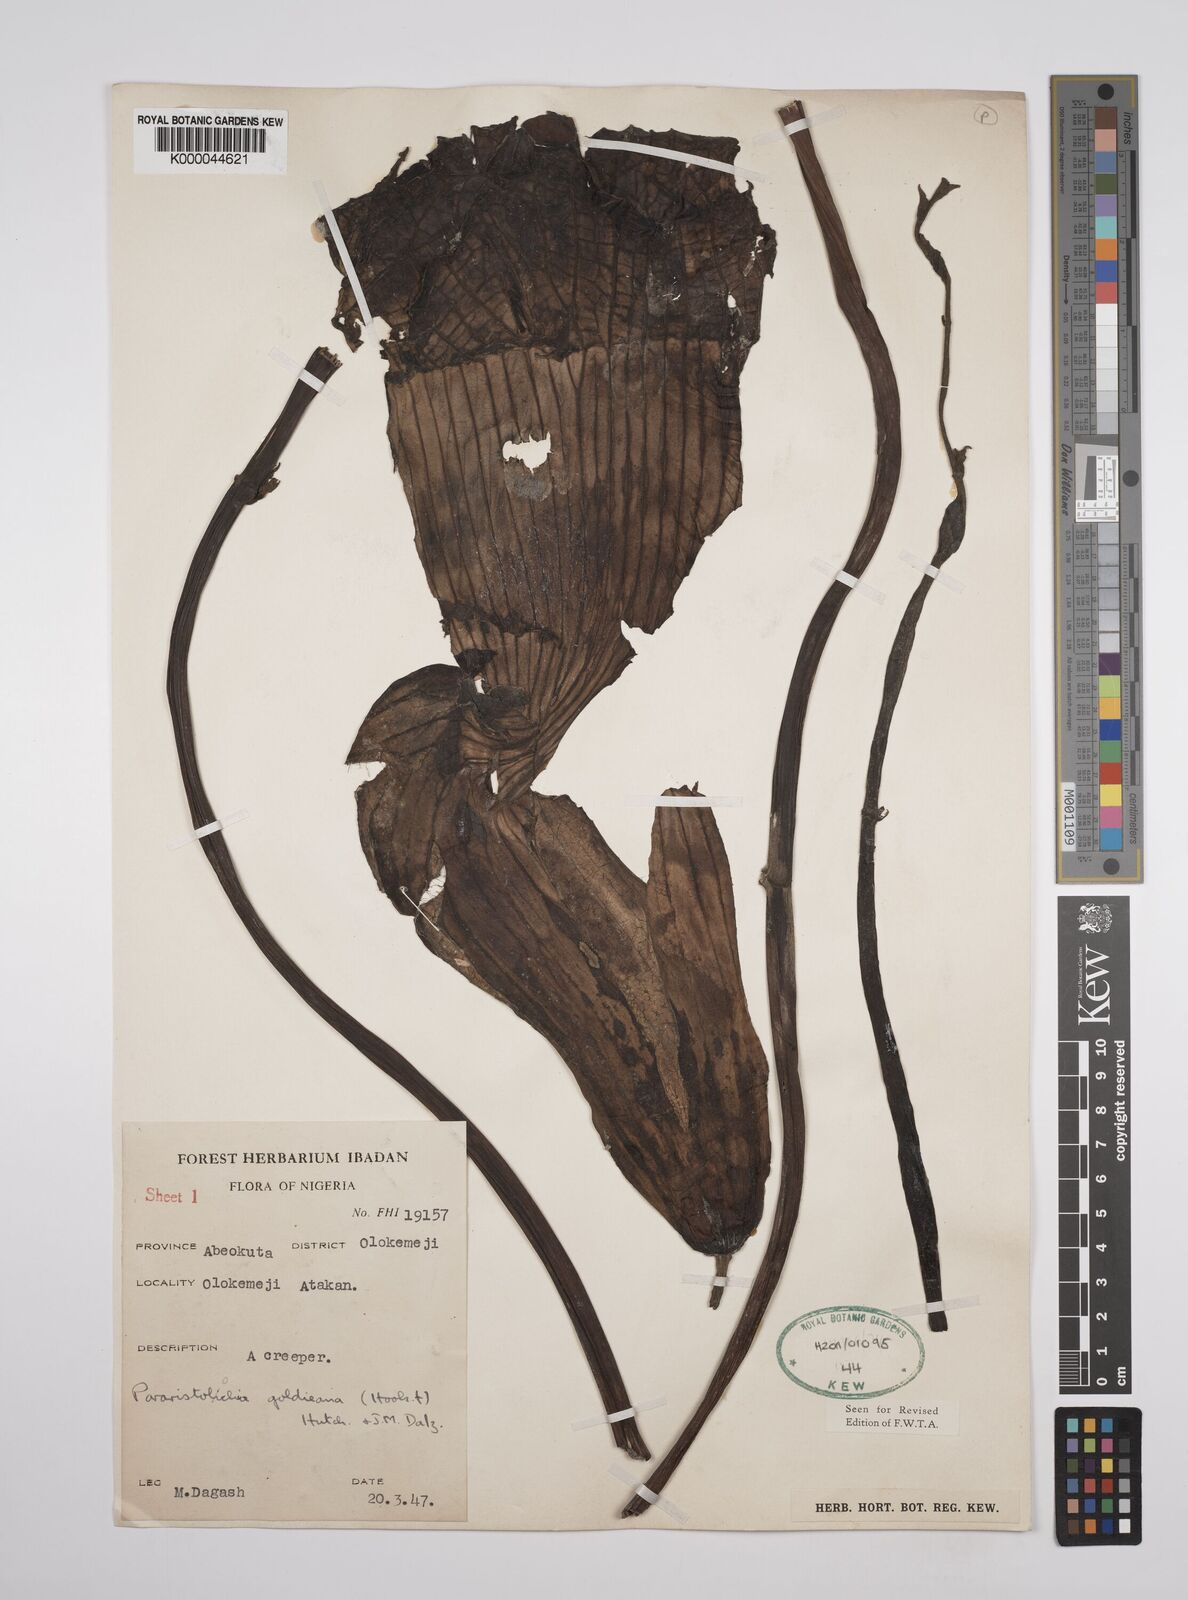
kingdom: Plantae
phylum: Tracheophyta
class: Magnoliopsida
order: Piperales
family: Aristolochiaceae
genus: Aristolochia
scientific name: Aristolochia goldieana
